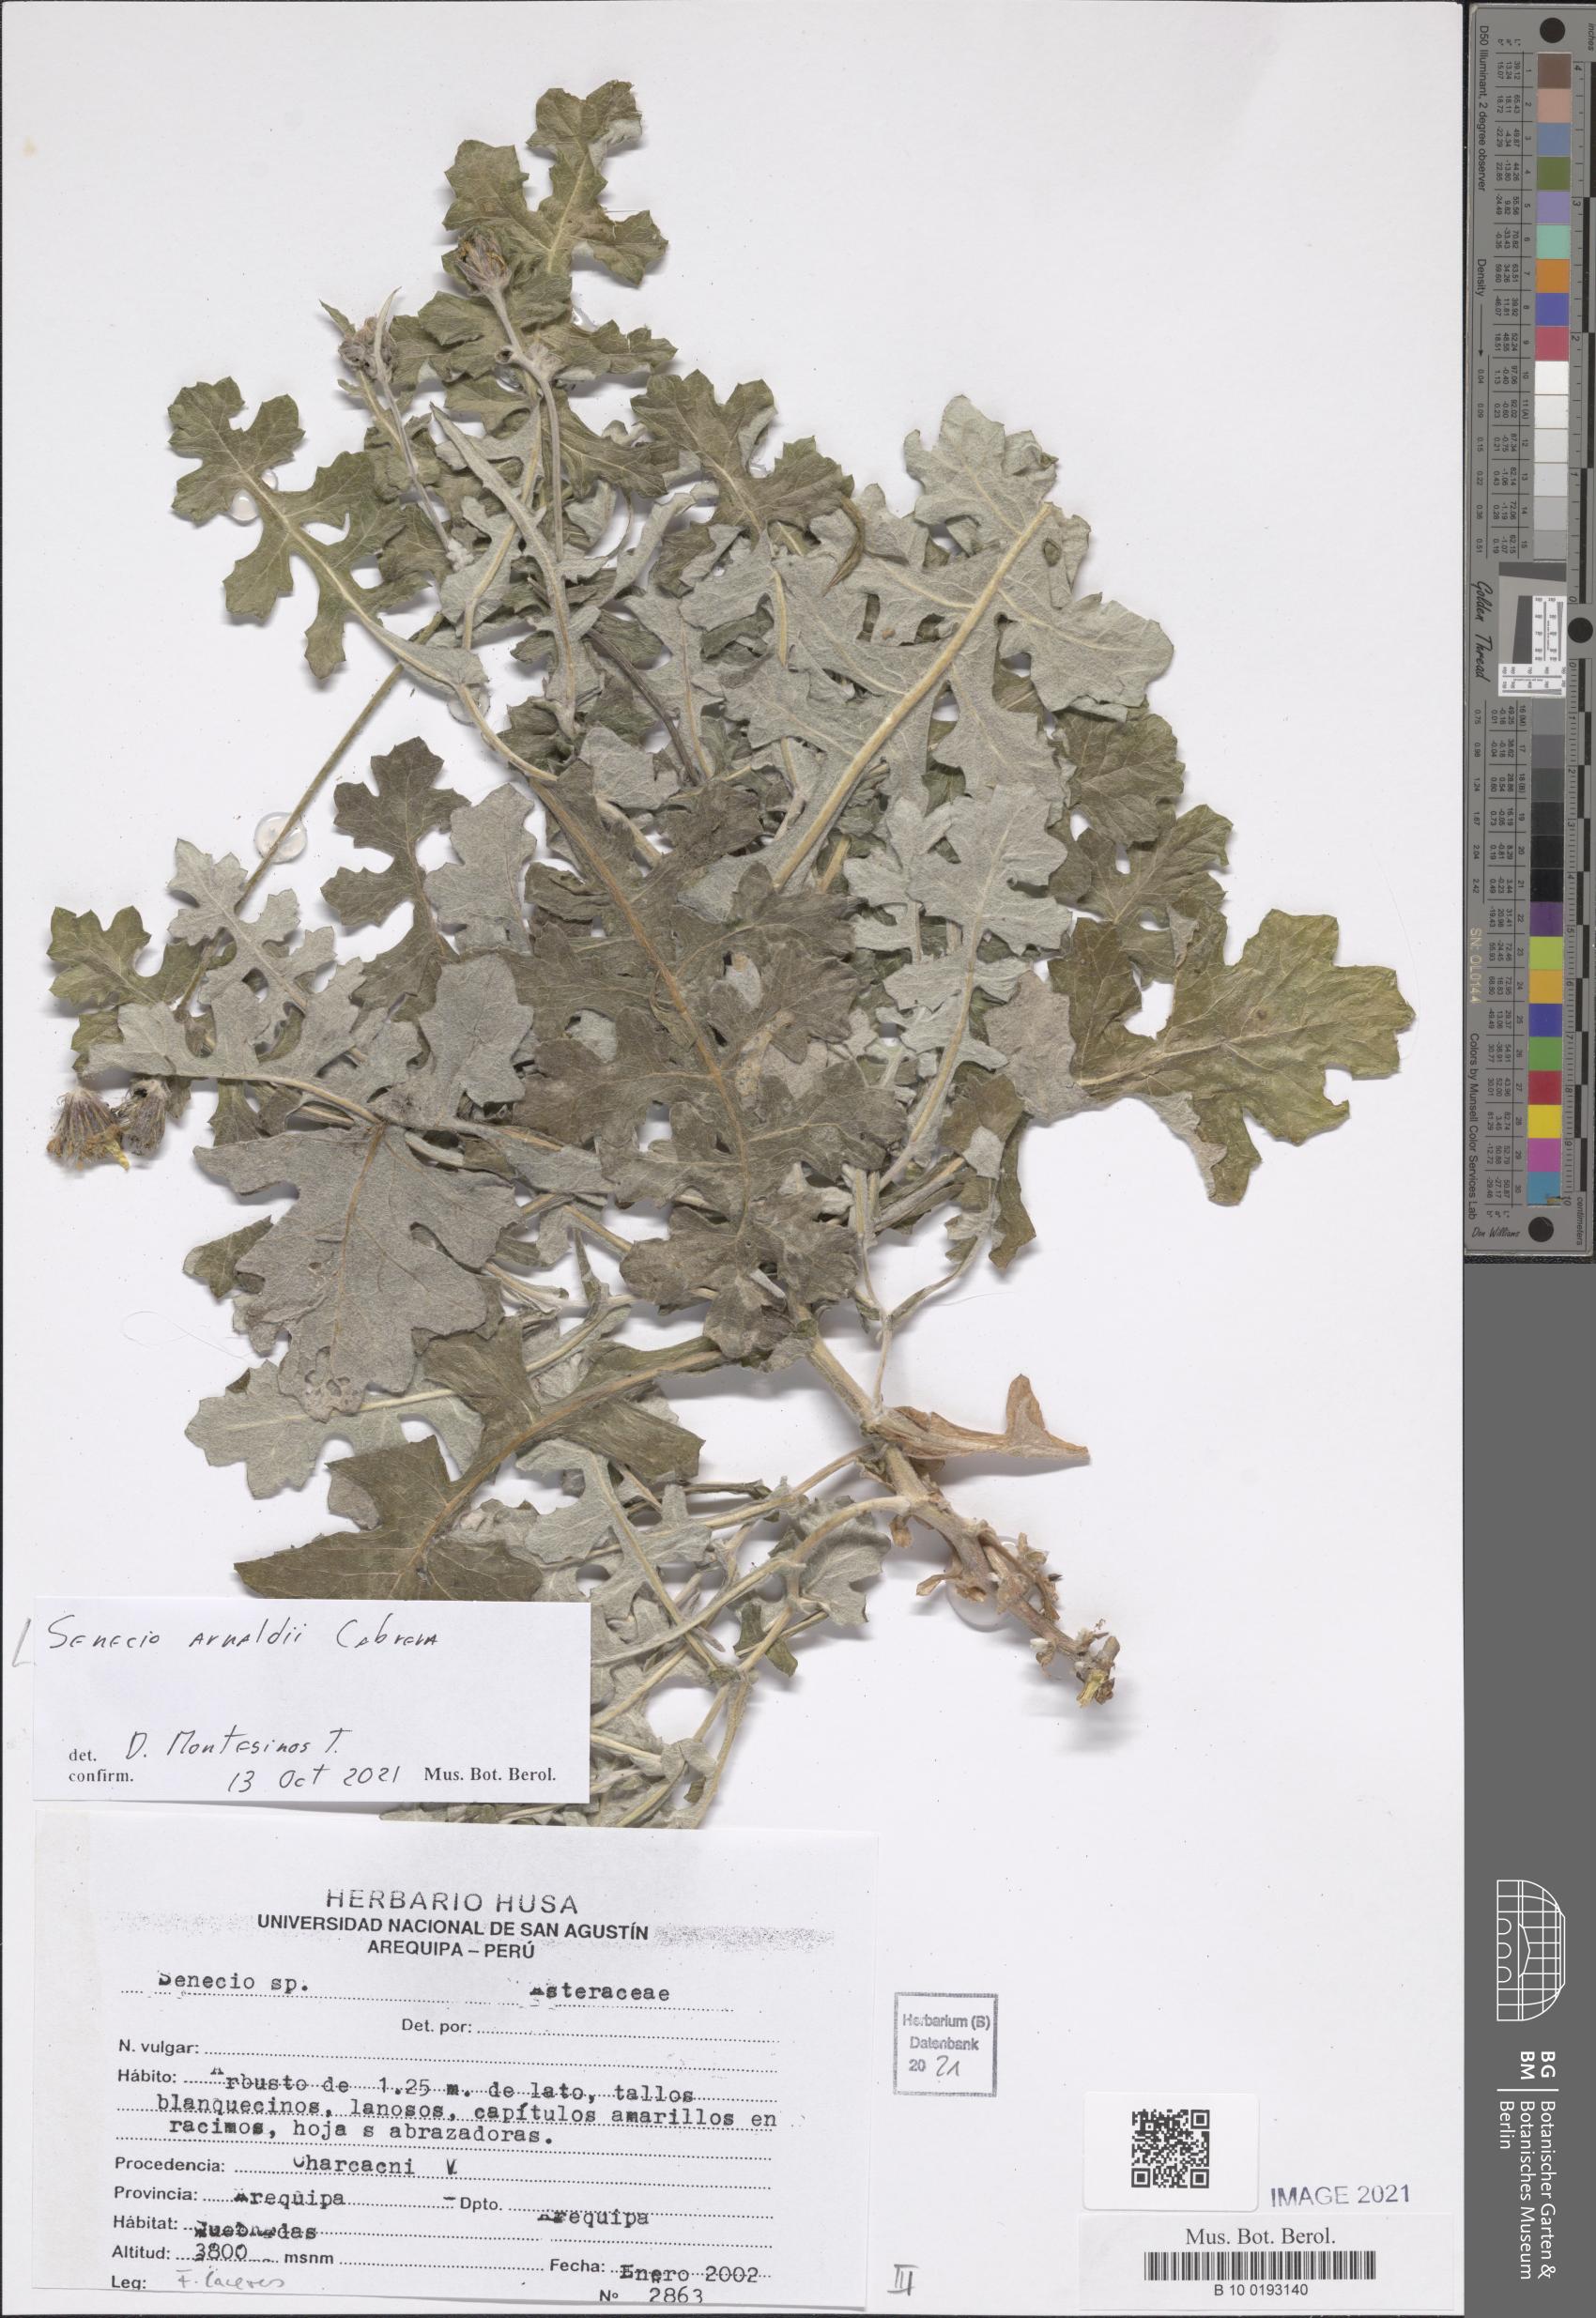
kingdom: Plantae
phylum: Tracheophyta
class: Magnoliopsida
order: Asterales
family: Asteraceae
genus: Lomanthus
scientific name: Lomanthus arnaldii
